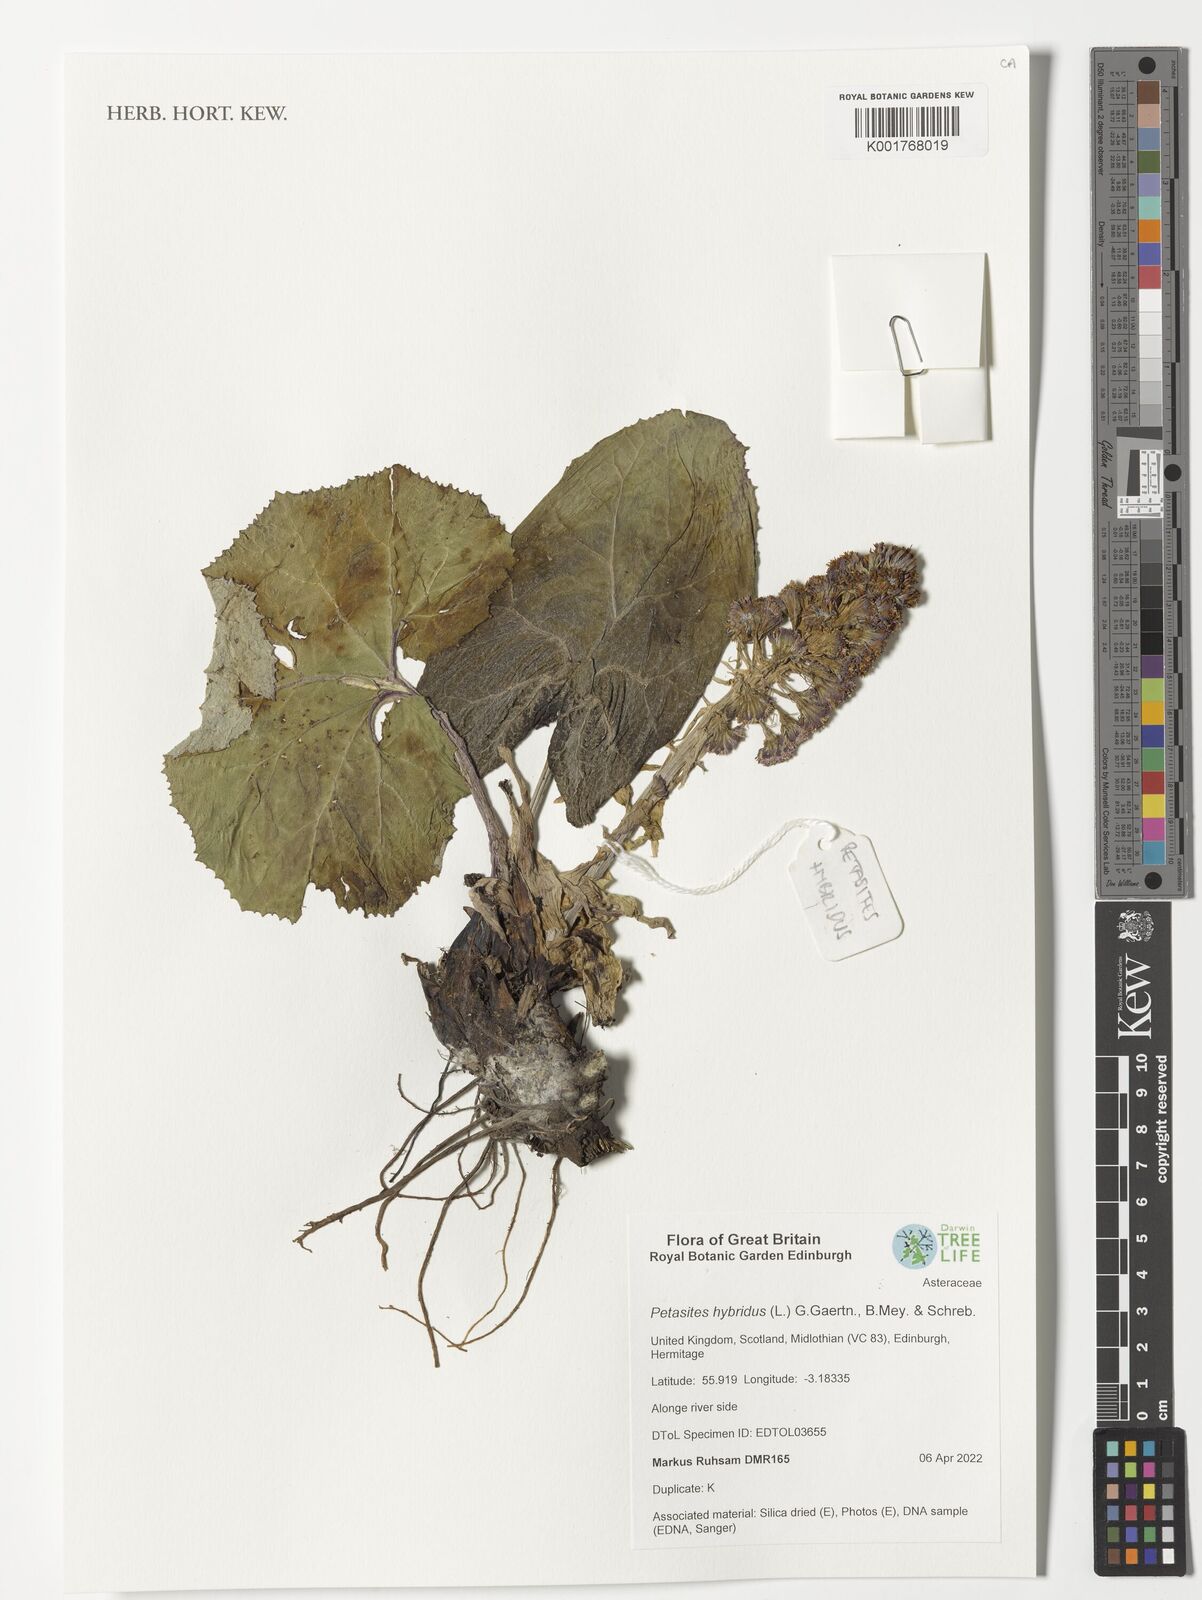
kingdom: Plantae
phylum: Tracheophyta
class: Magnoliopsida
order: Asterales
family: Asteraceae
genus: Petasites
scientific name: Petasites hybridus
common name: Butterbur
